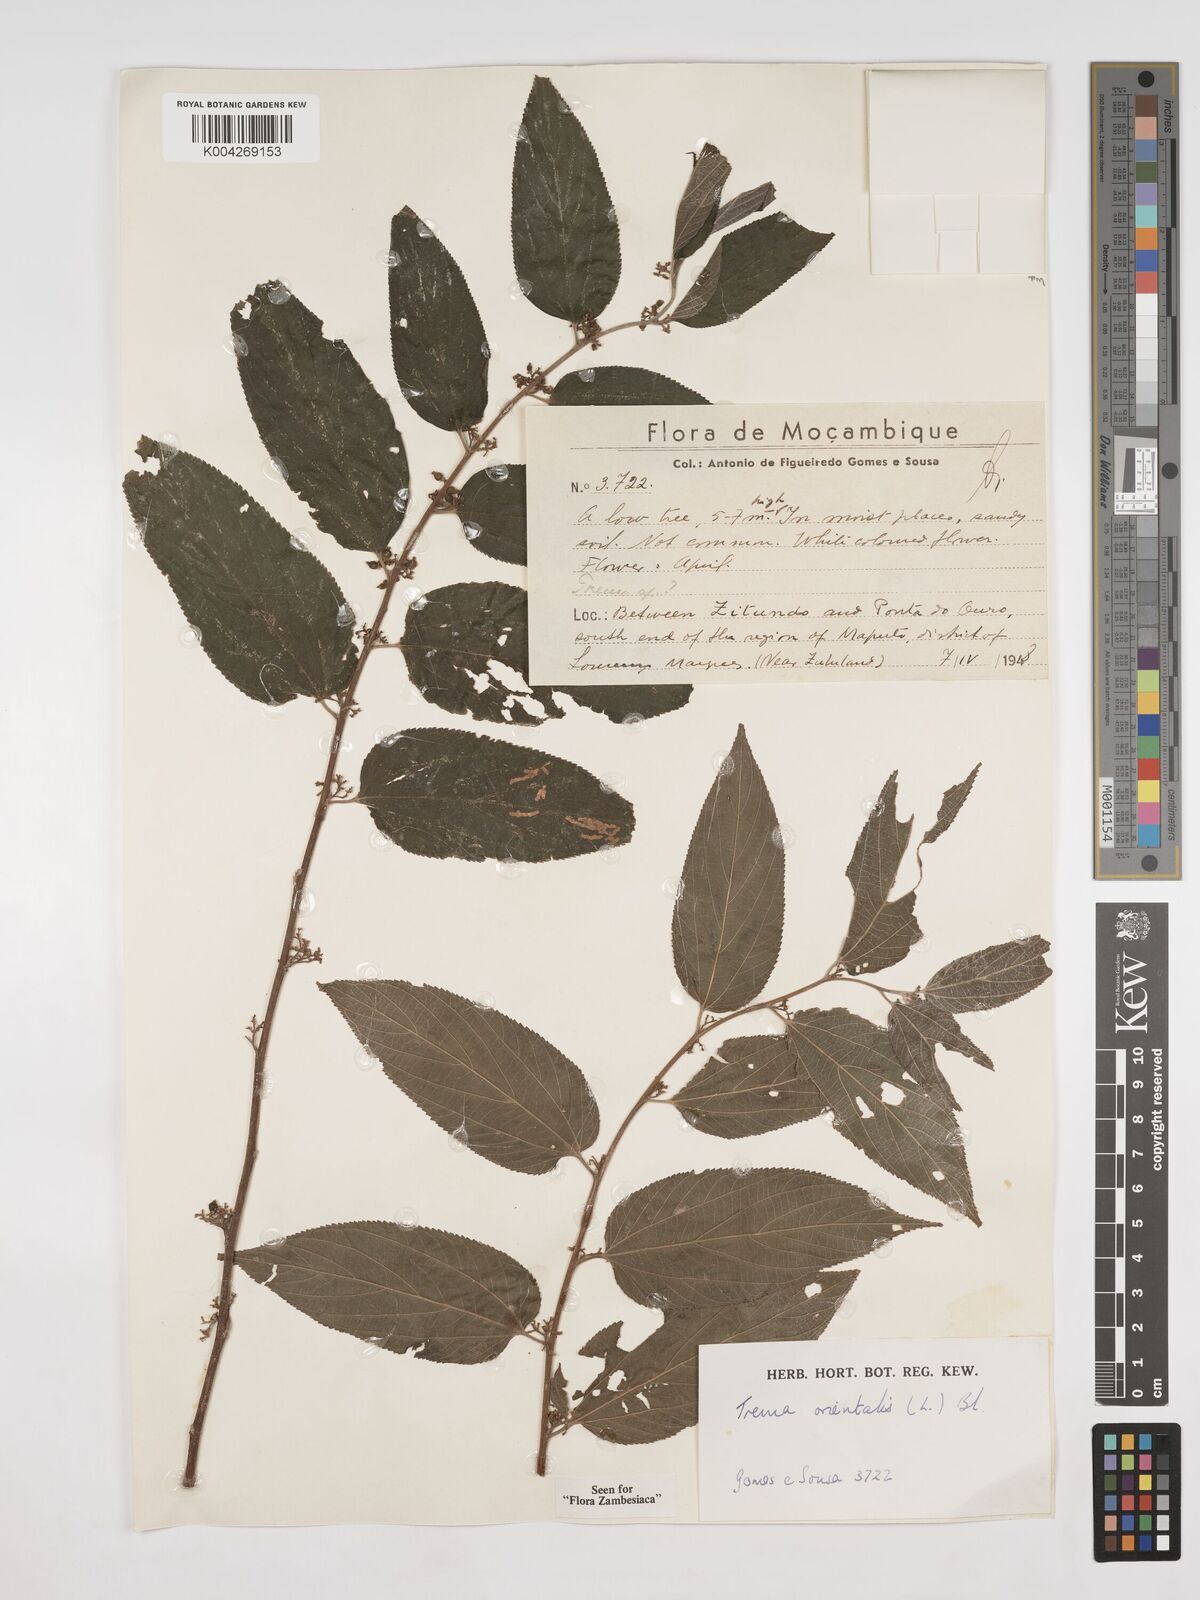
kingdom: Plantae
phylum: Tracheophyta
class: Magnoliopsida
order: Rosales
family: Cannabaceae
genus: Trema
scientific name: Trema orientale
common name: Indian charcoal tree
